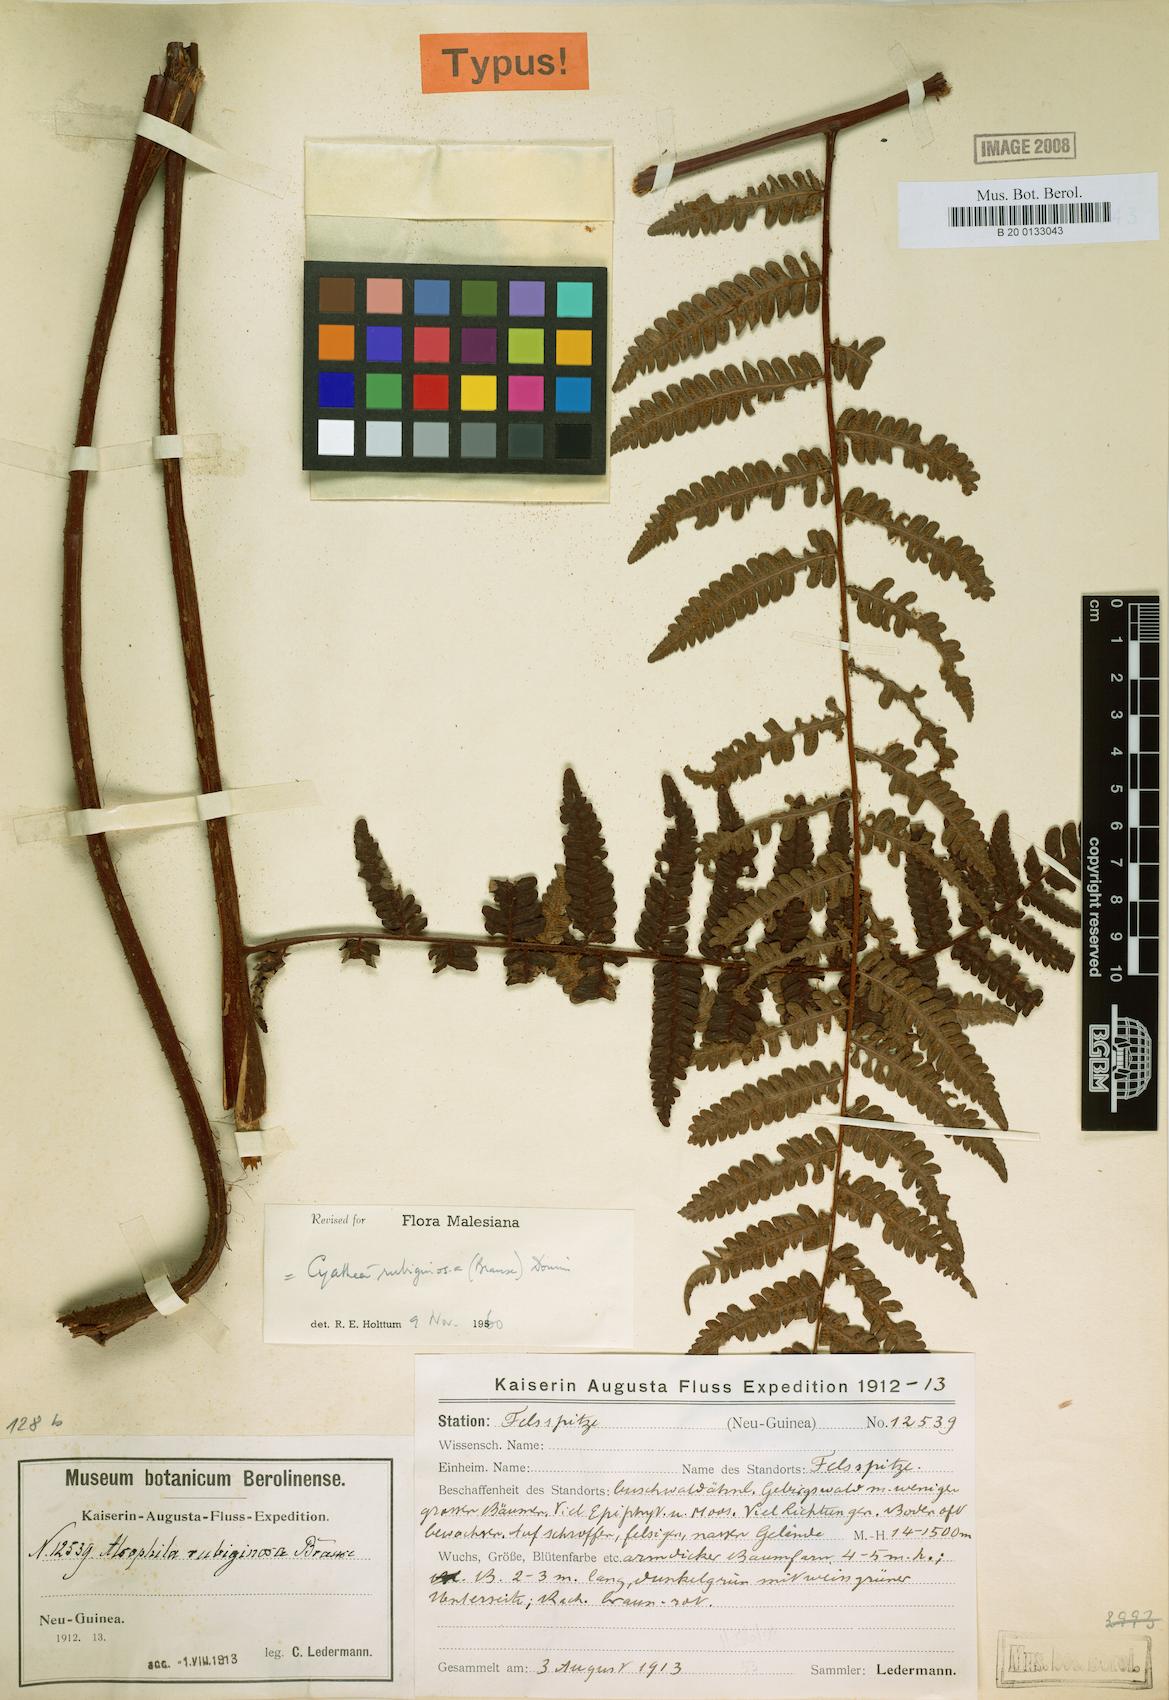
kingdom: Plantae
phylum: Tracheophyta
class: Polypodiopsida
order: Cyatheales
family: Cyatheaceae
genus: Alsophila
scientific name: Alsophila rubiginosa
